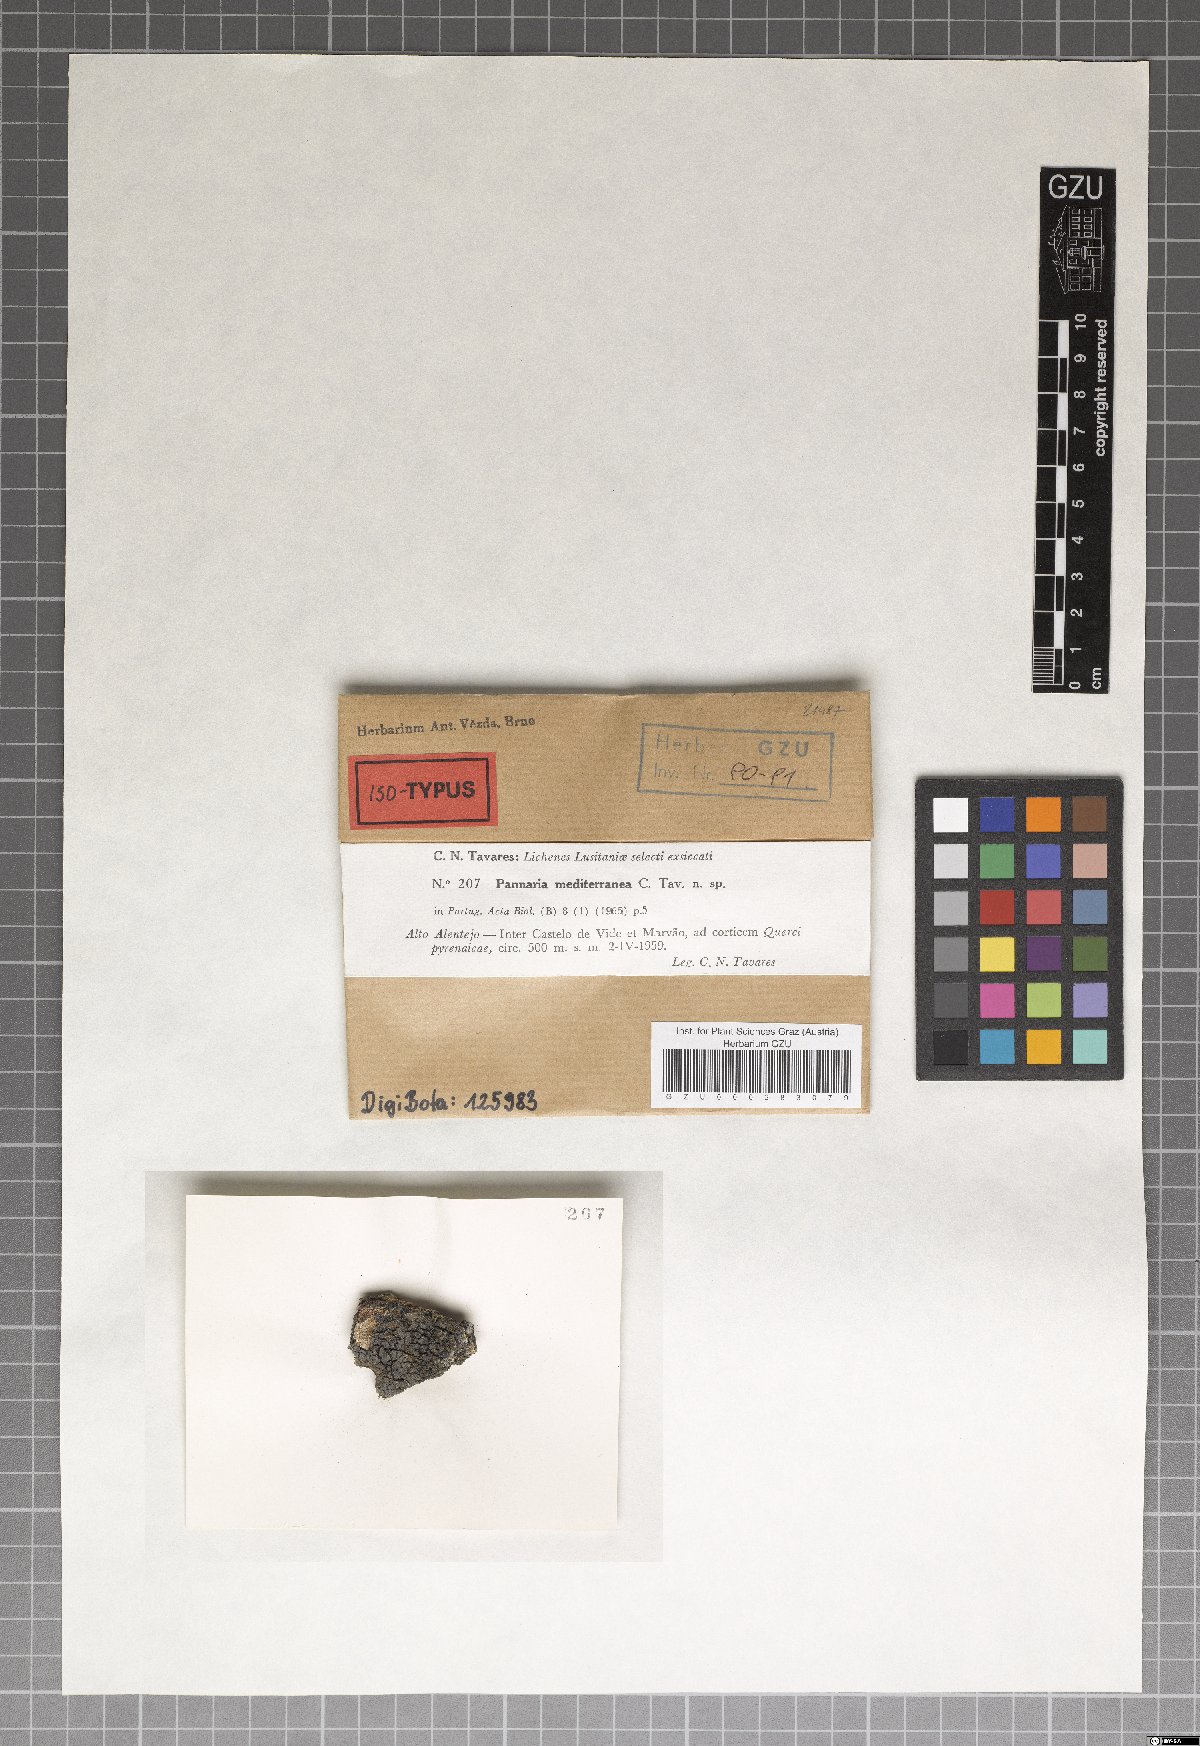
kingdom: Fungi
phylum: Ascomycota
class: Lecanoromycetes
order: Peltigerales
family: Pannariaceae
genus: Fuscopannaria
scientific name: Fuscopannaria mediterranea
